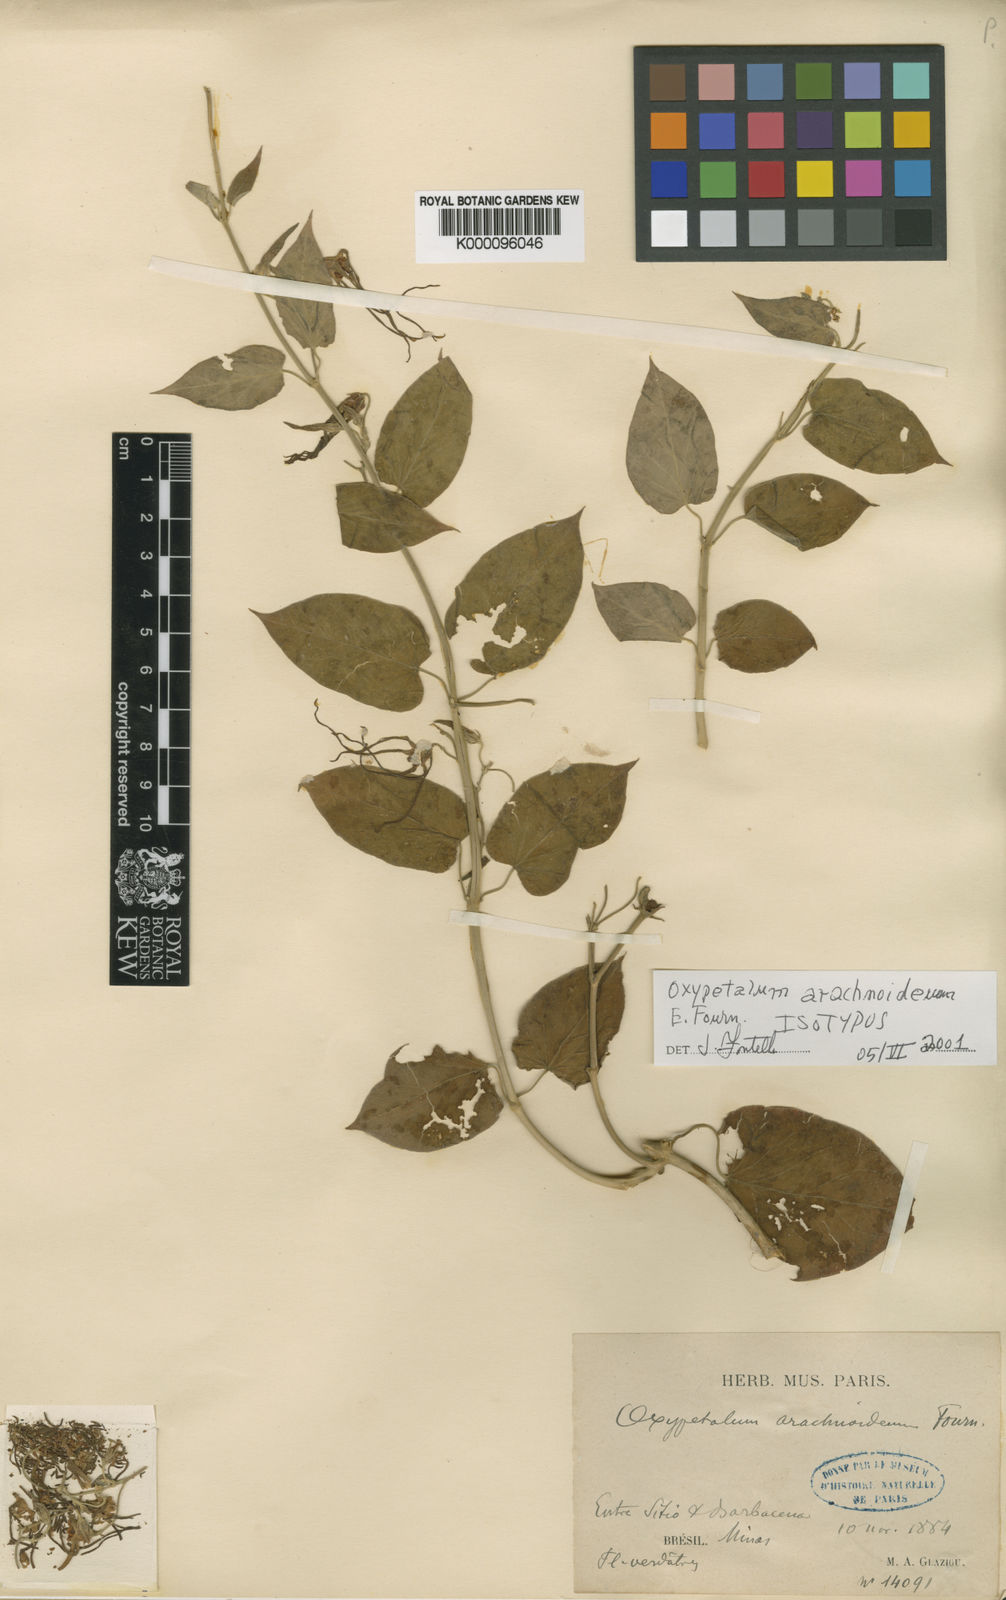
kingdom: Plantae
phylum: Tracheophyta
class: Magnoliopsida
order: Gentianales
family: Apocynaceae
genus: Oxypetalum
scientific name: Oxypetalum arachnoideum
